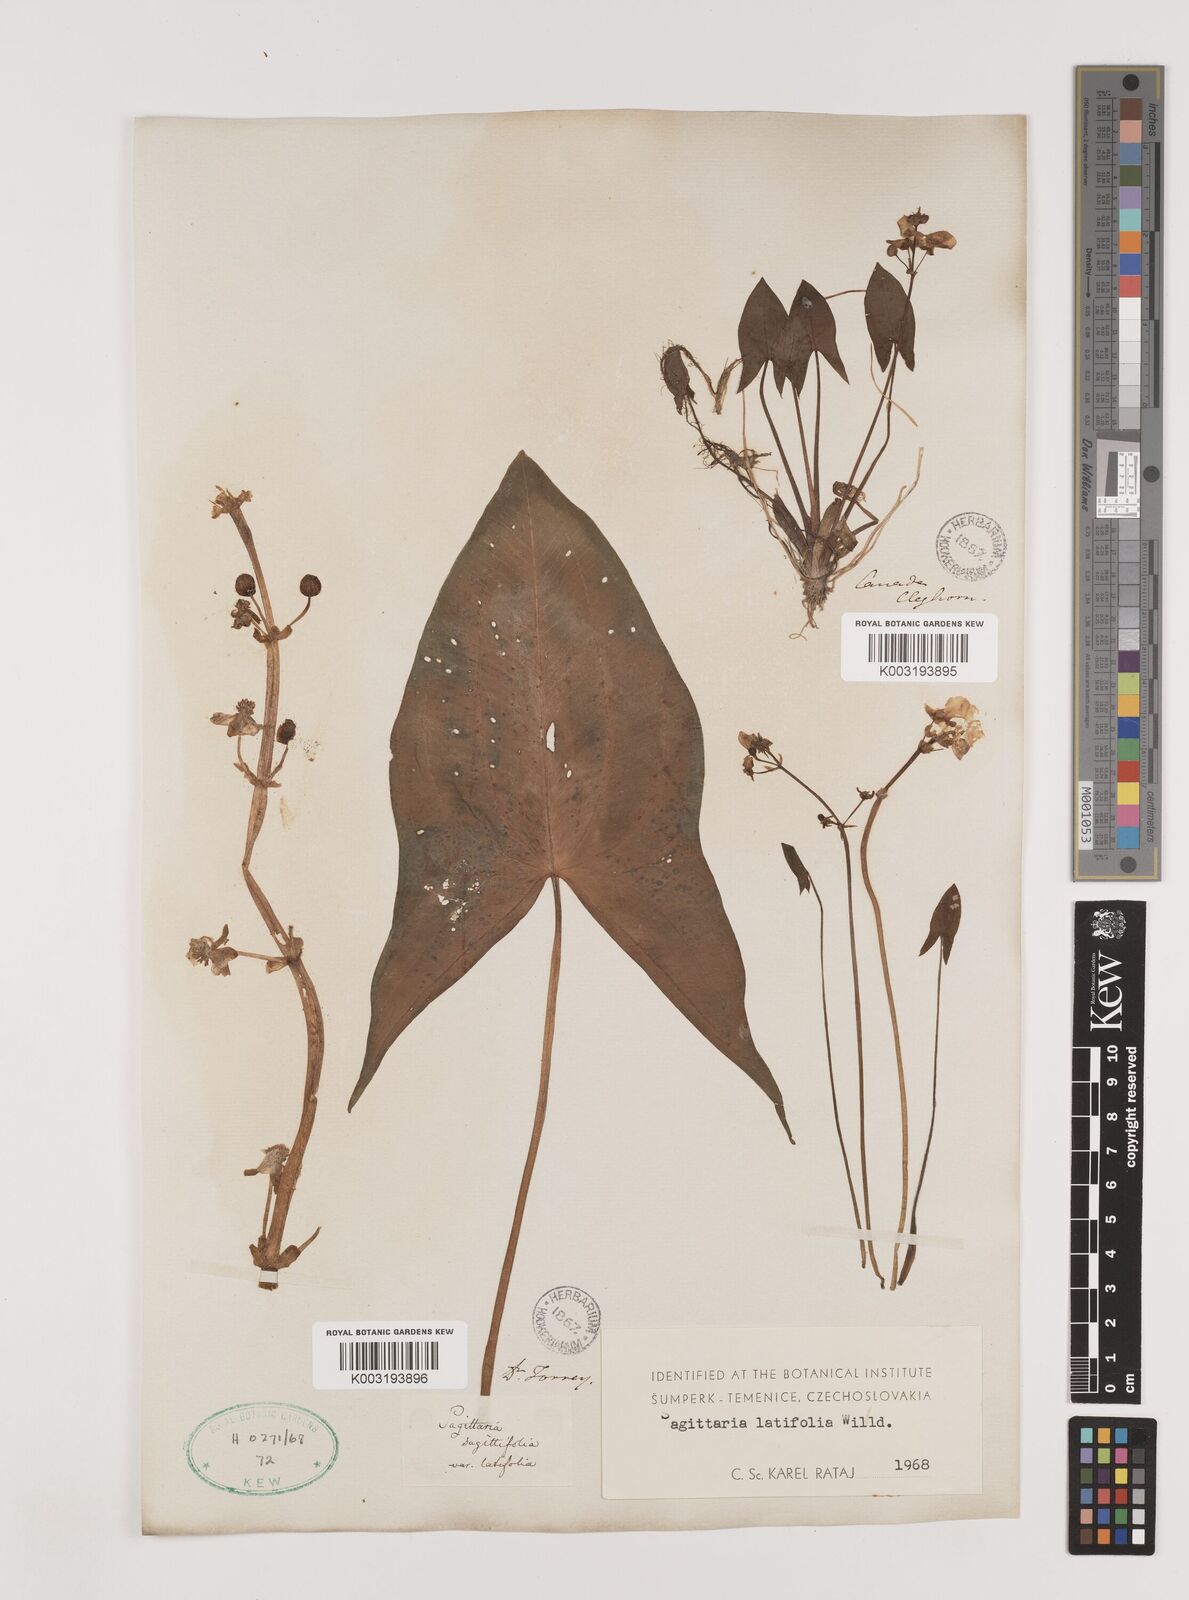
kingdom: Plantae
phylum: Tracheophyta
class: Liliopsida
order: Alismatales
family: Alismataceae
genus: Sagittaria
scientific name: Sagittaria latifolia
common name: Duck-potato
